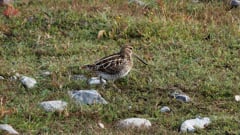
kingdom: Animalia
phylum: Chordata
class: Aves
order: Charadriiformes
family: Scolopacidae
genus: Gallinago
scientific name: Gallinago gallinago
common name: Common snipe
